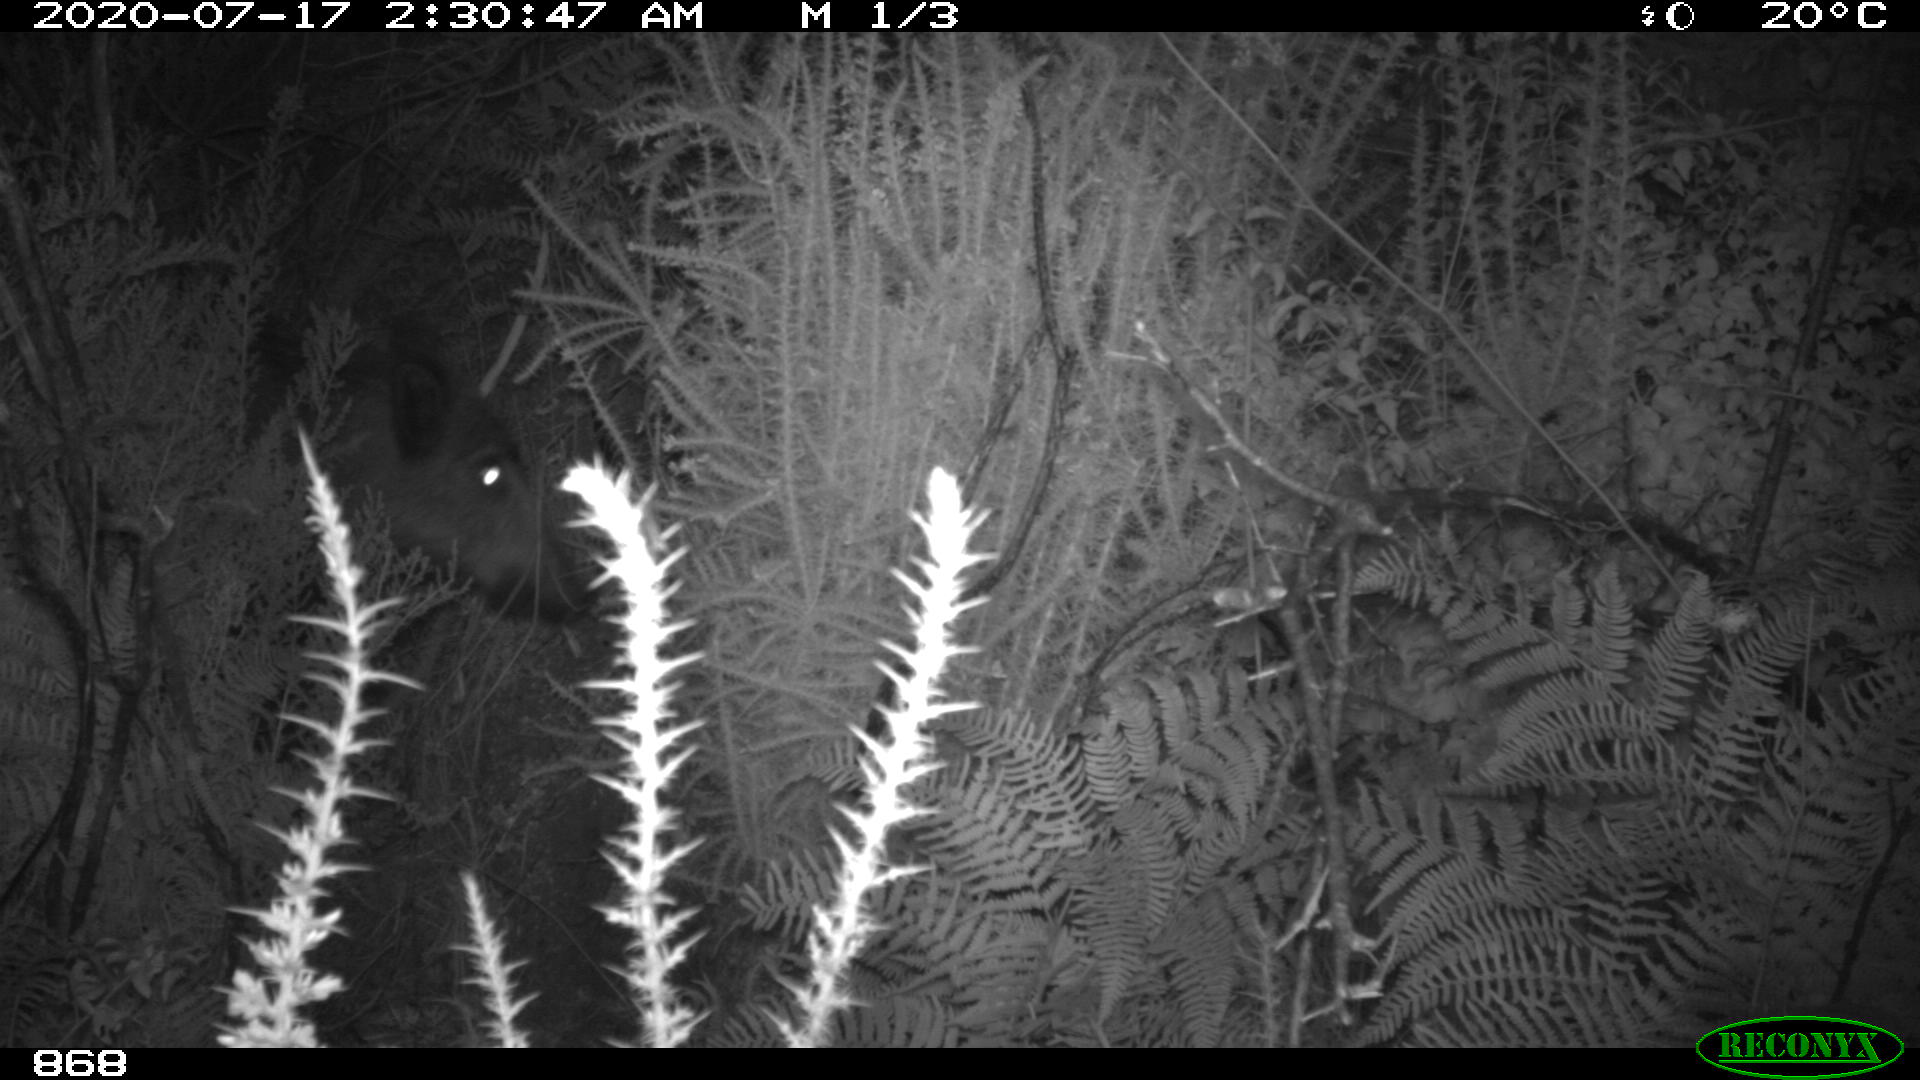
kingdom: Animalia
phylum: Chordata
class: Mammalia
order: Artiodactyla
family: Suidae
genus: Sus
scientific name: Sus scrofa
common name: Wild boar
